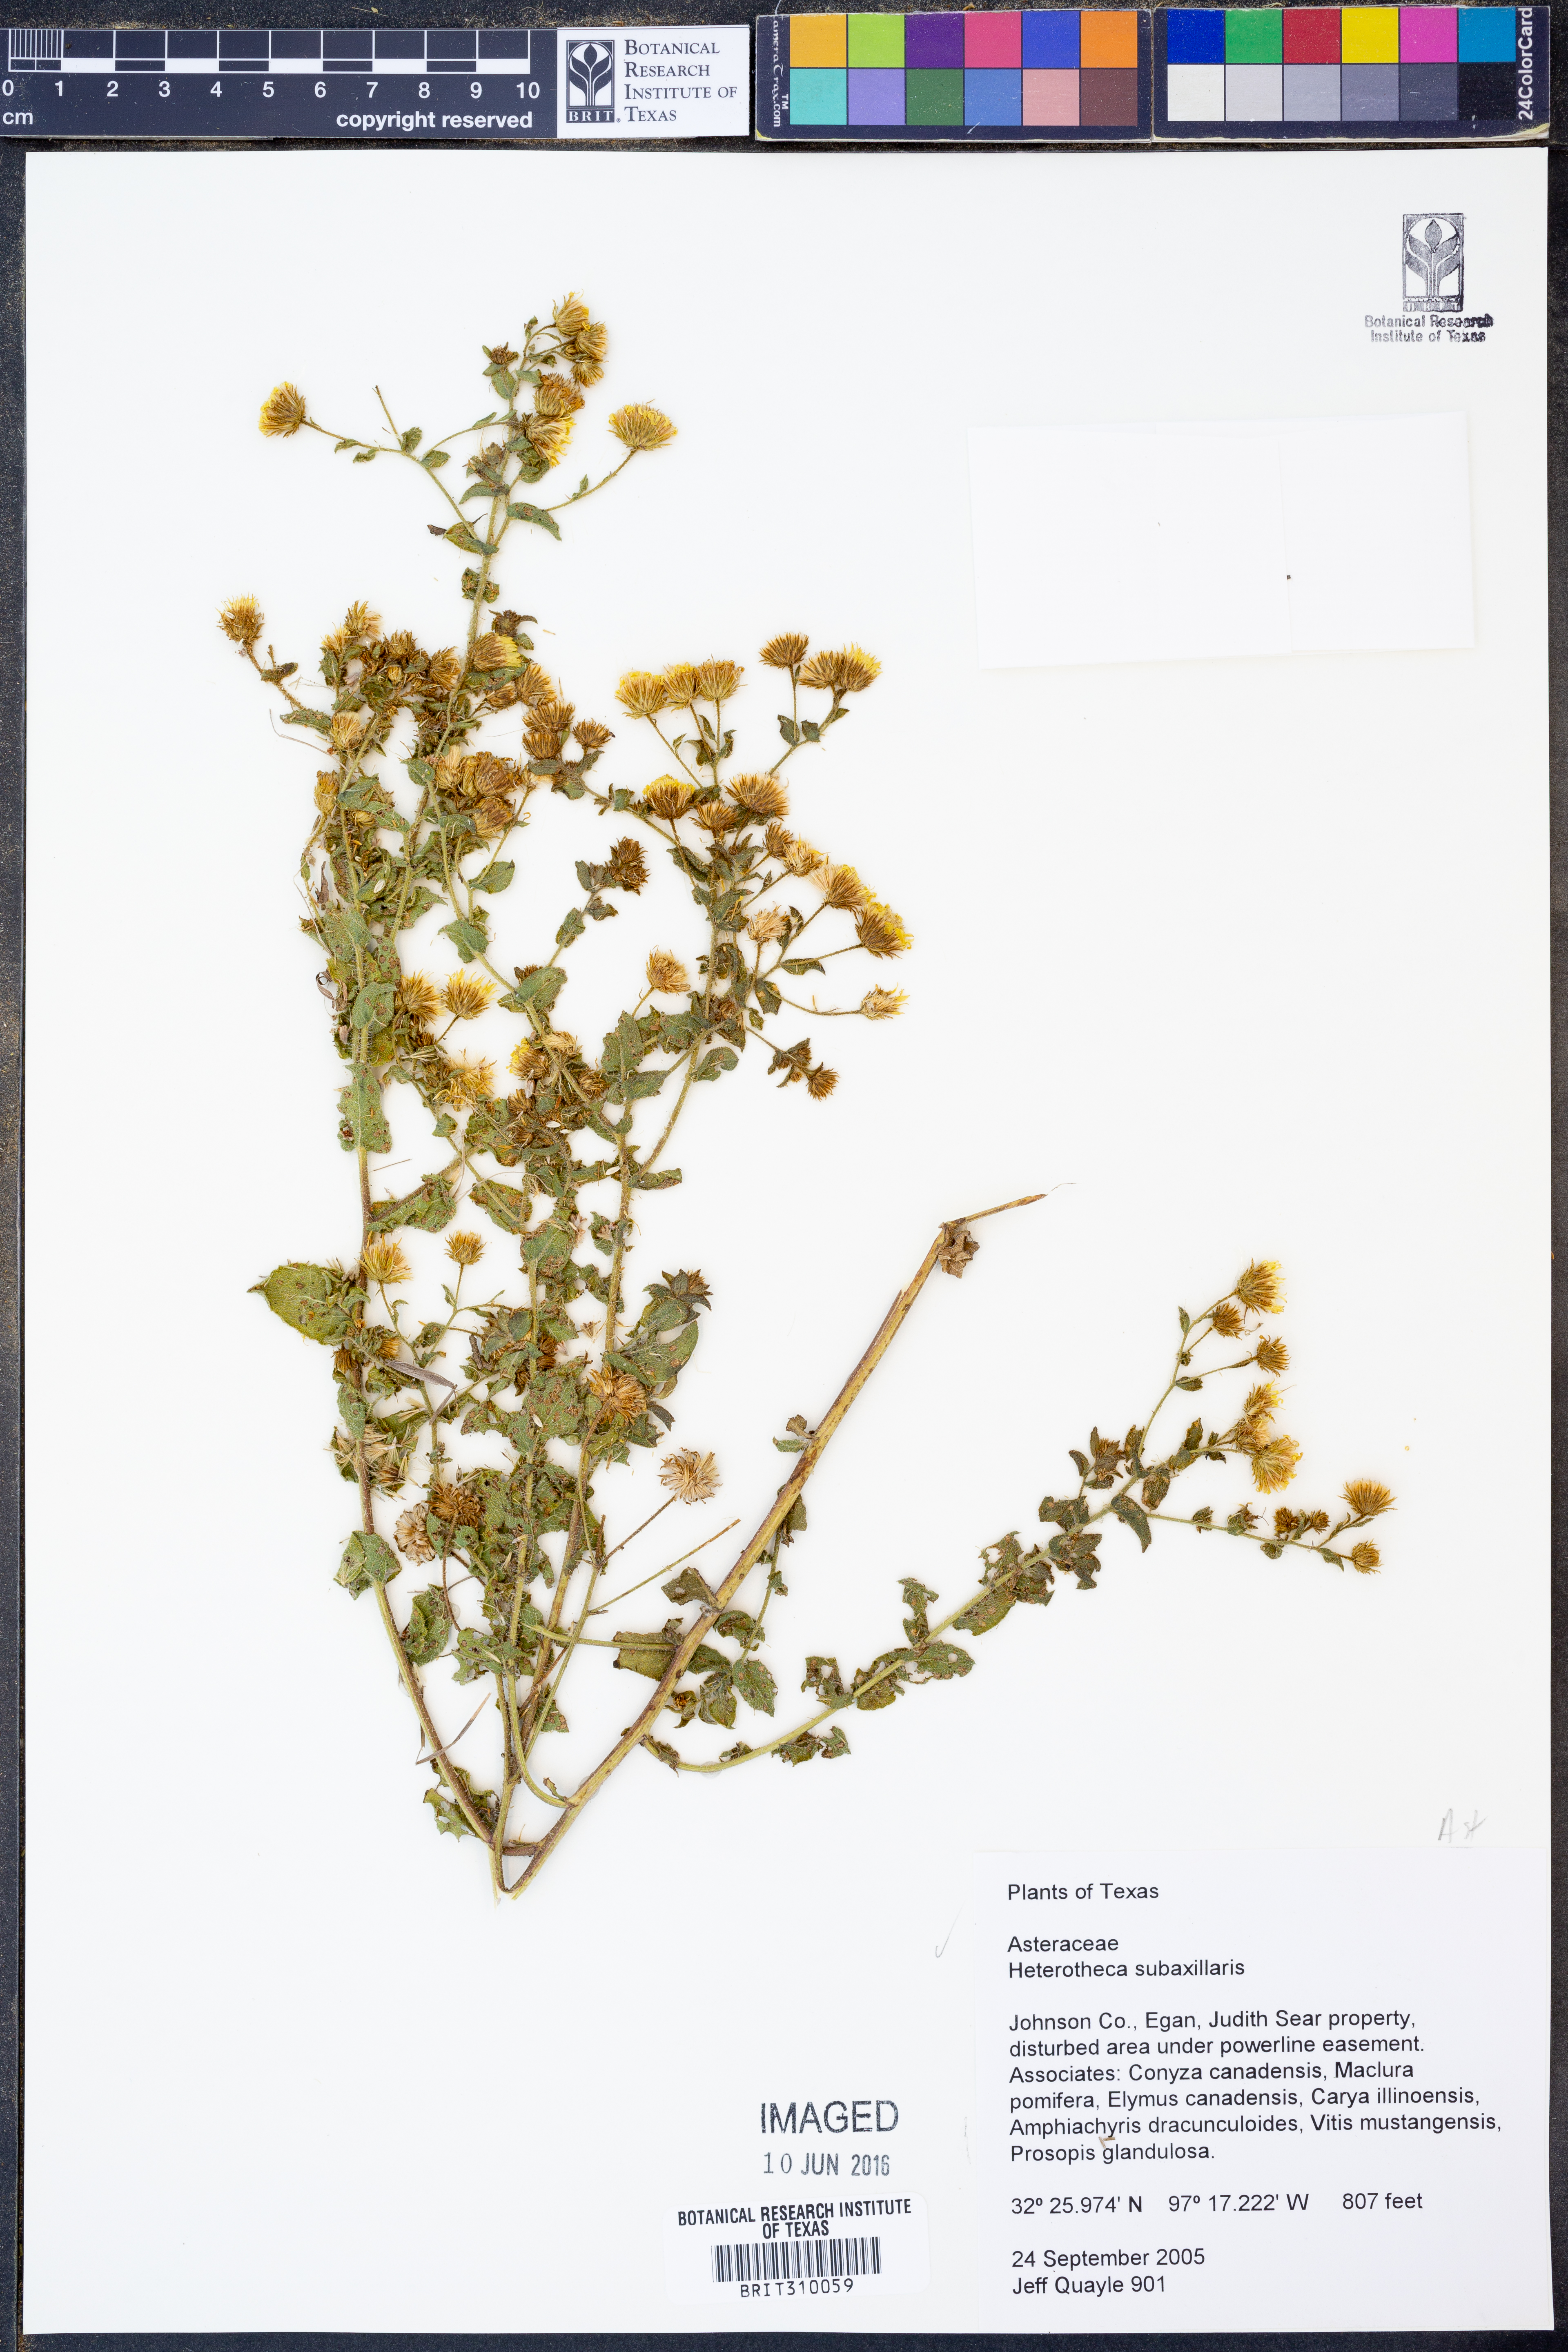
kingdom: Plantae
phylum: Tracheophyta
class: Magnoliopsida
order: Asterales
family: Asteraceae
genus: Heterotheca
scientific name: Heterotheca subaxillaris
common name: Camphorweed
